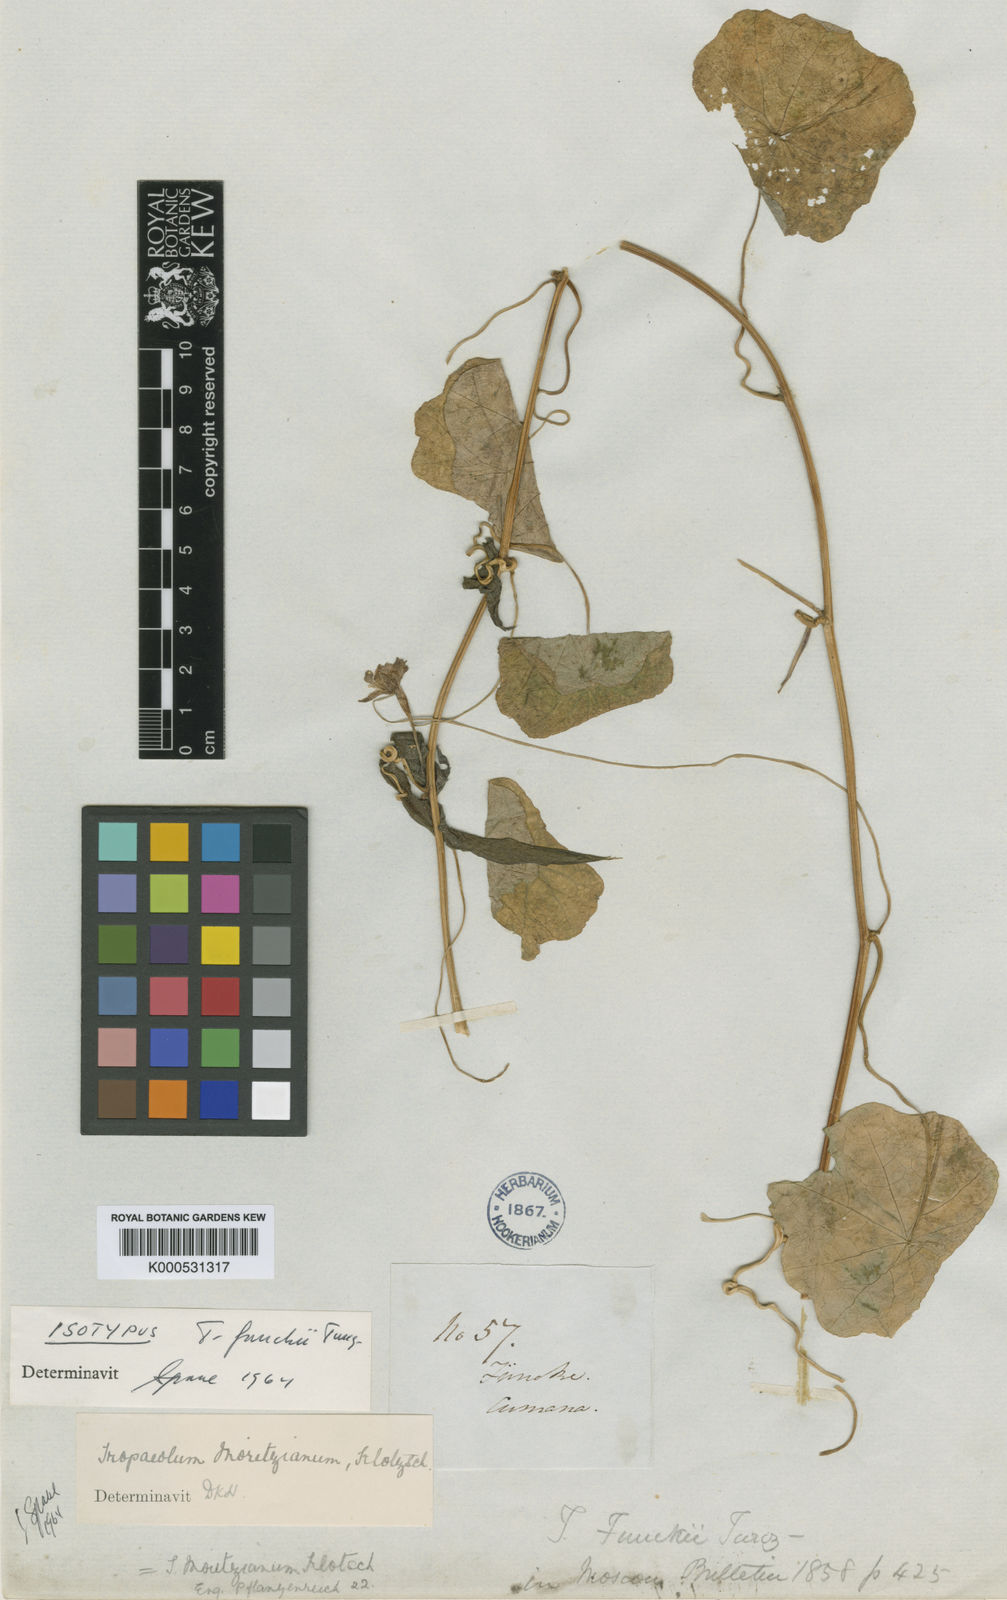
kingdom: Plantae
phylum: Tracheophyta
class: Magnoliopsida
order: Brassicales
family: Tropaeolaceae
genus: Tropaeolum
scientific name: Tropaeolum moritzianum
